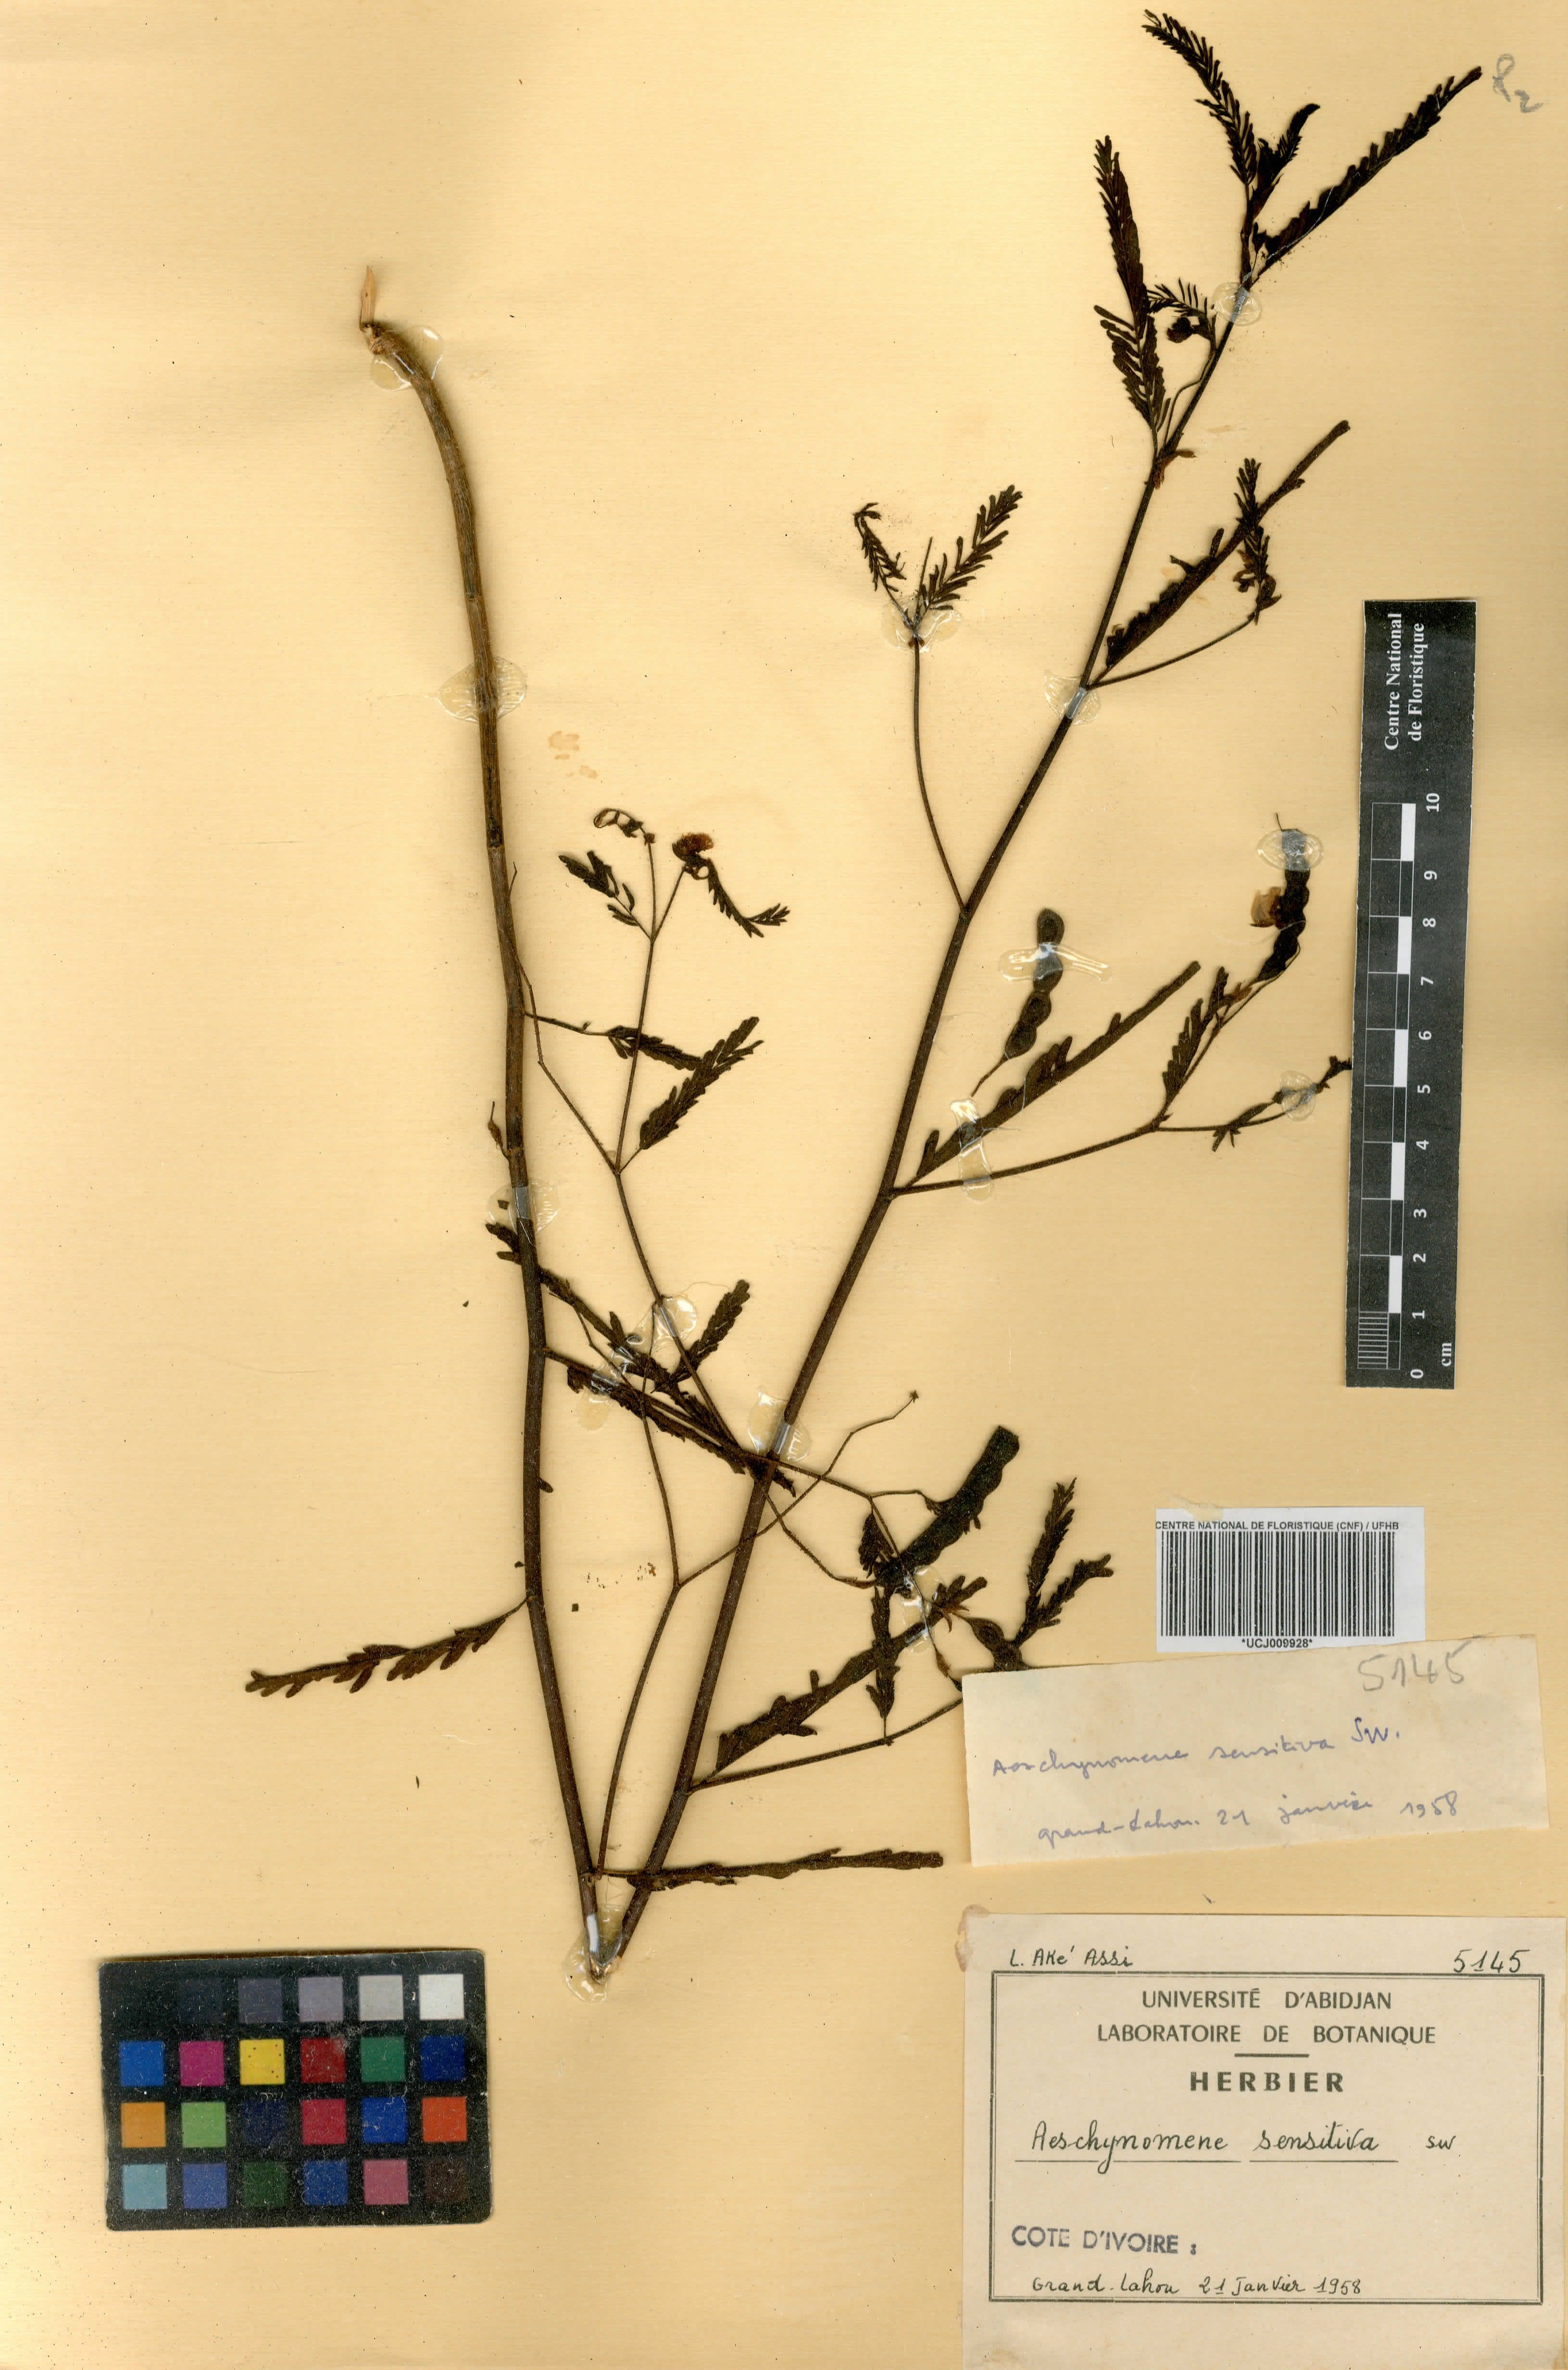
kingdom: Plantae
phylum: Tracheophyta
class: Magnoliopsida
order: Fabales
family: Fabaceae
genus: Aeschynomene
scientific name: Aeschynomene sensitiva
